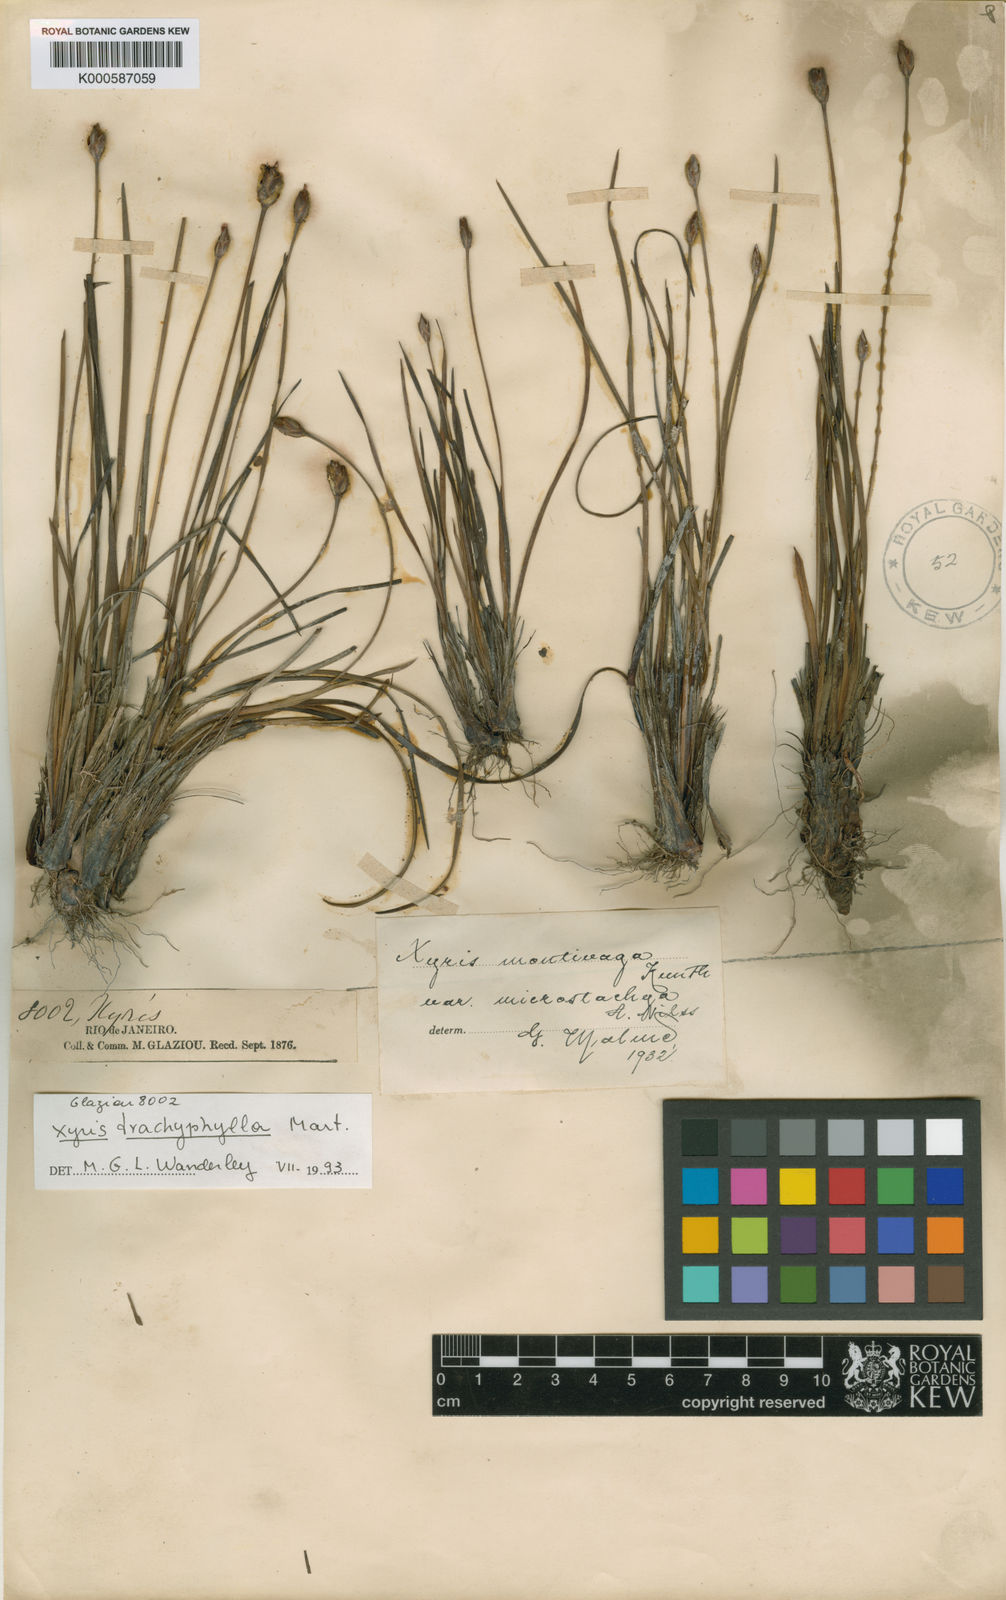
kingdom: Plantae
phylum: Tracheophyta
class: Liliopsida
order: Poales
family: Xyridaceae
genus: Xyris
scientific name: Xyris trachyphylla
